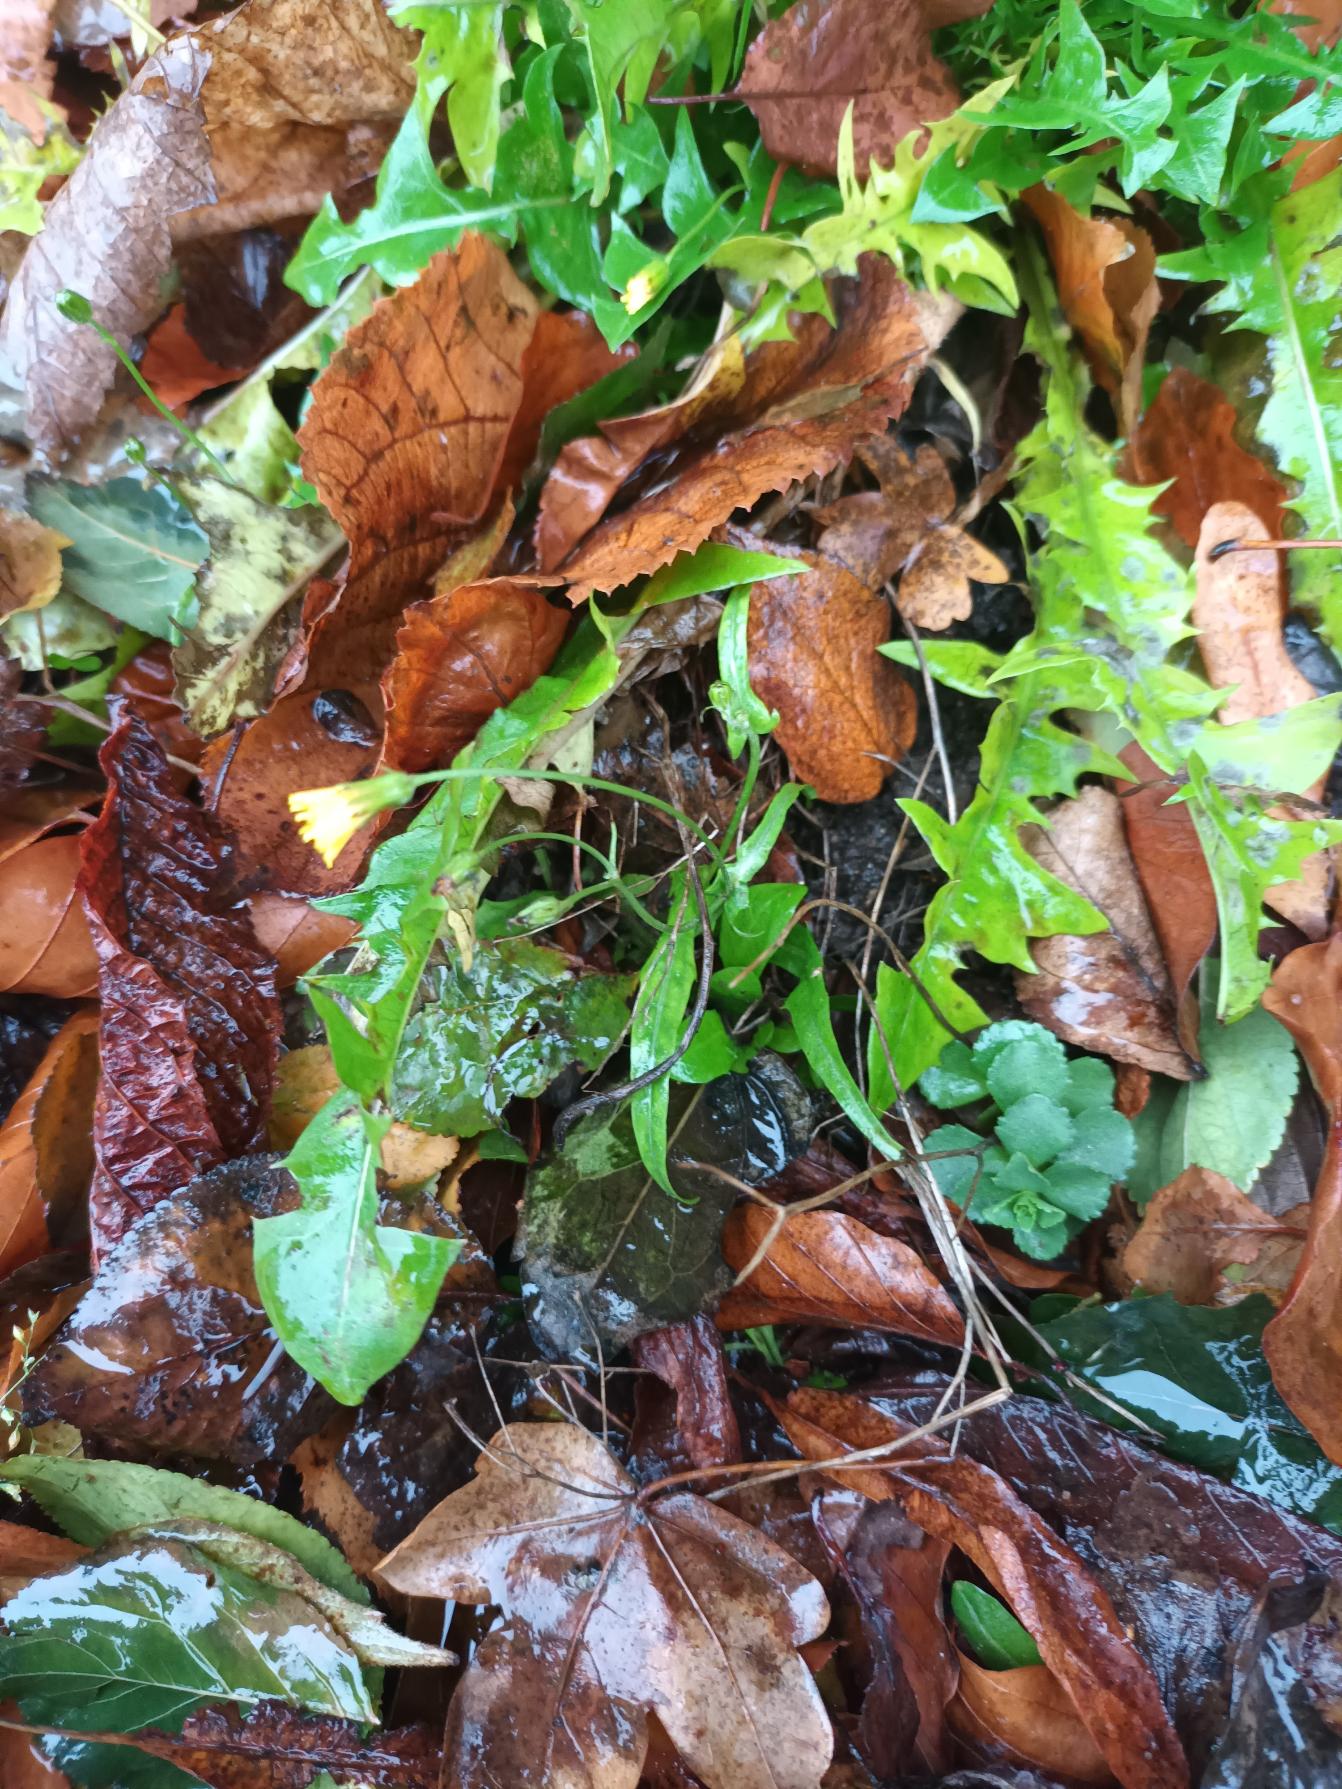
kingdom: Plantae
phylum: Tracheophyta
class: Magnoliopsida
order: Asterales
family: Asteraceae
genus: Crepis
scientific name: Crepis capillaris
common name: Grøn høgeskæg
